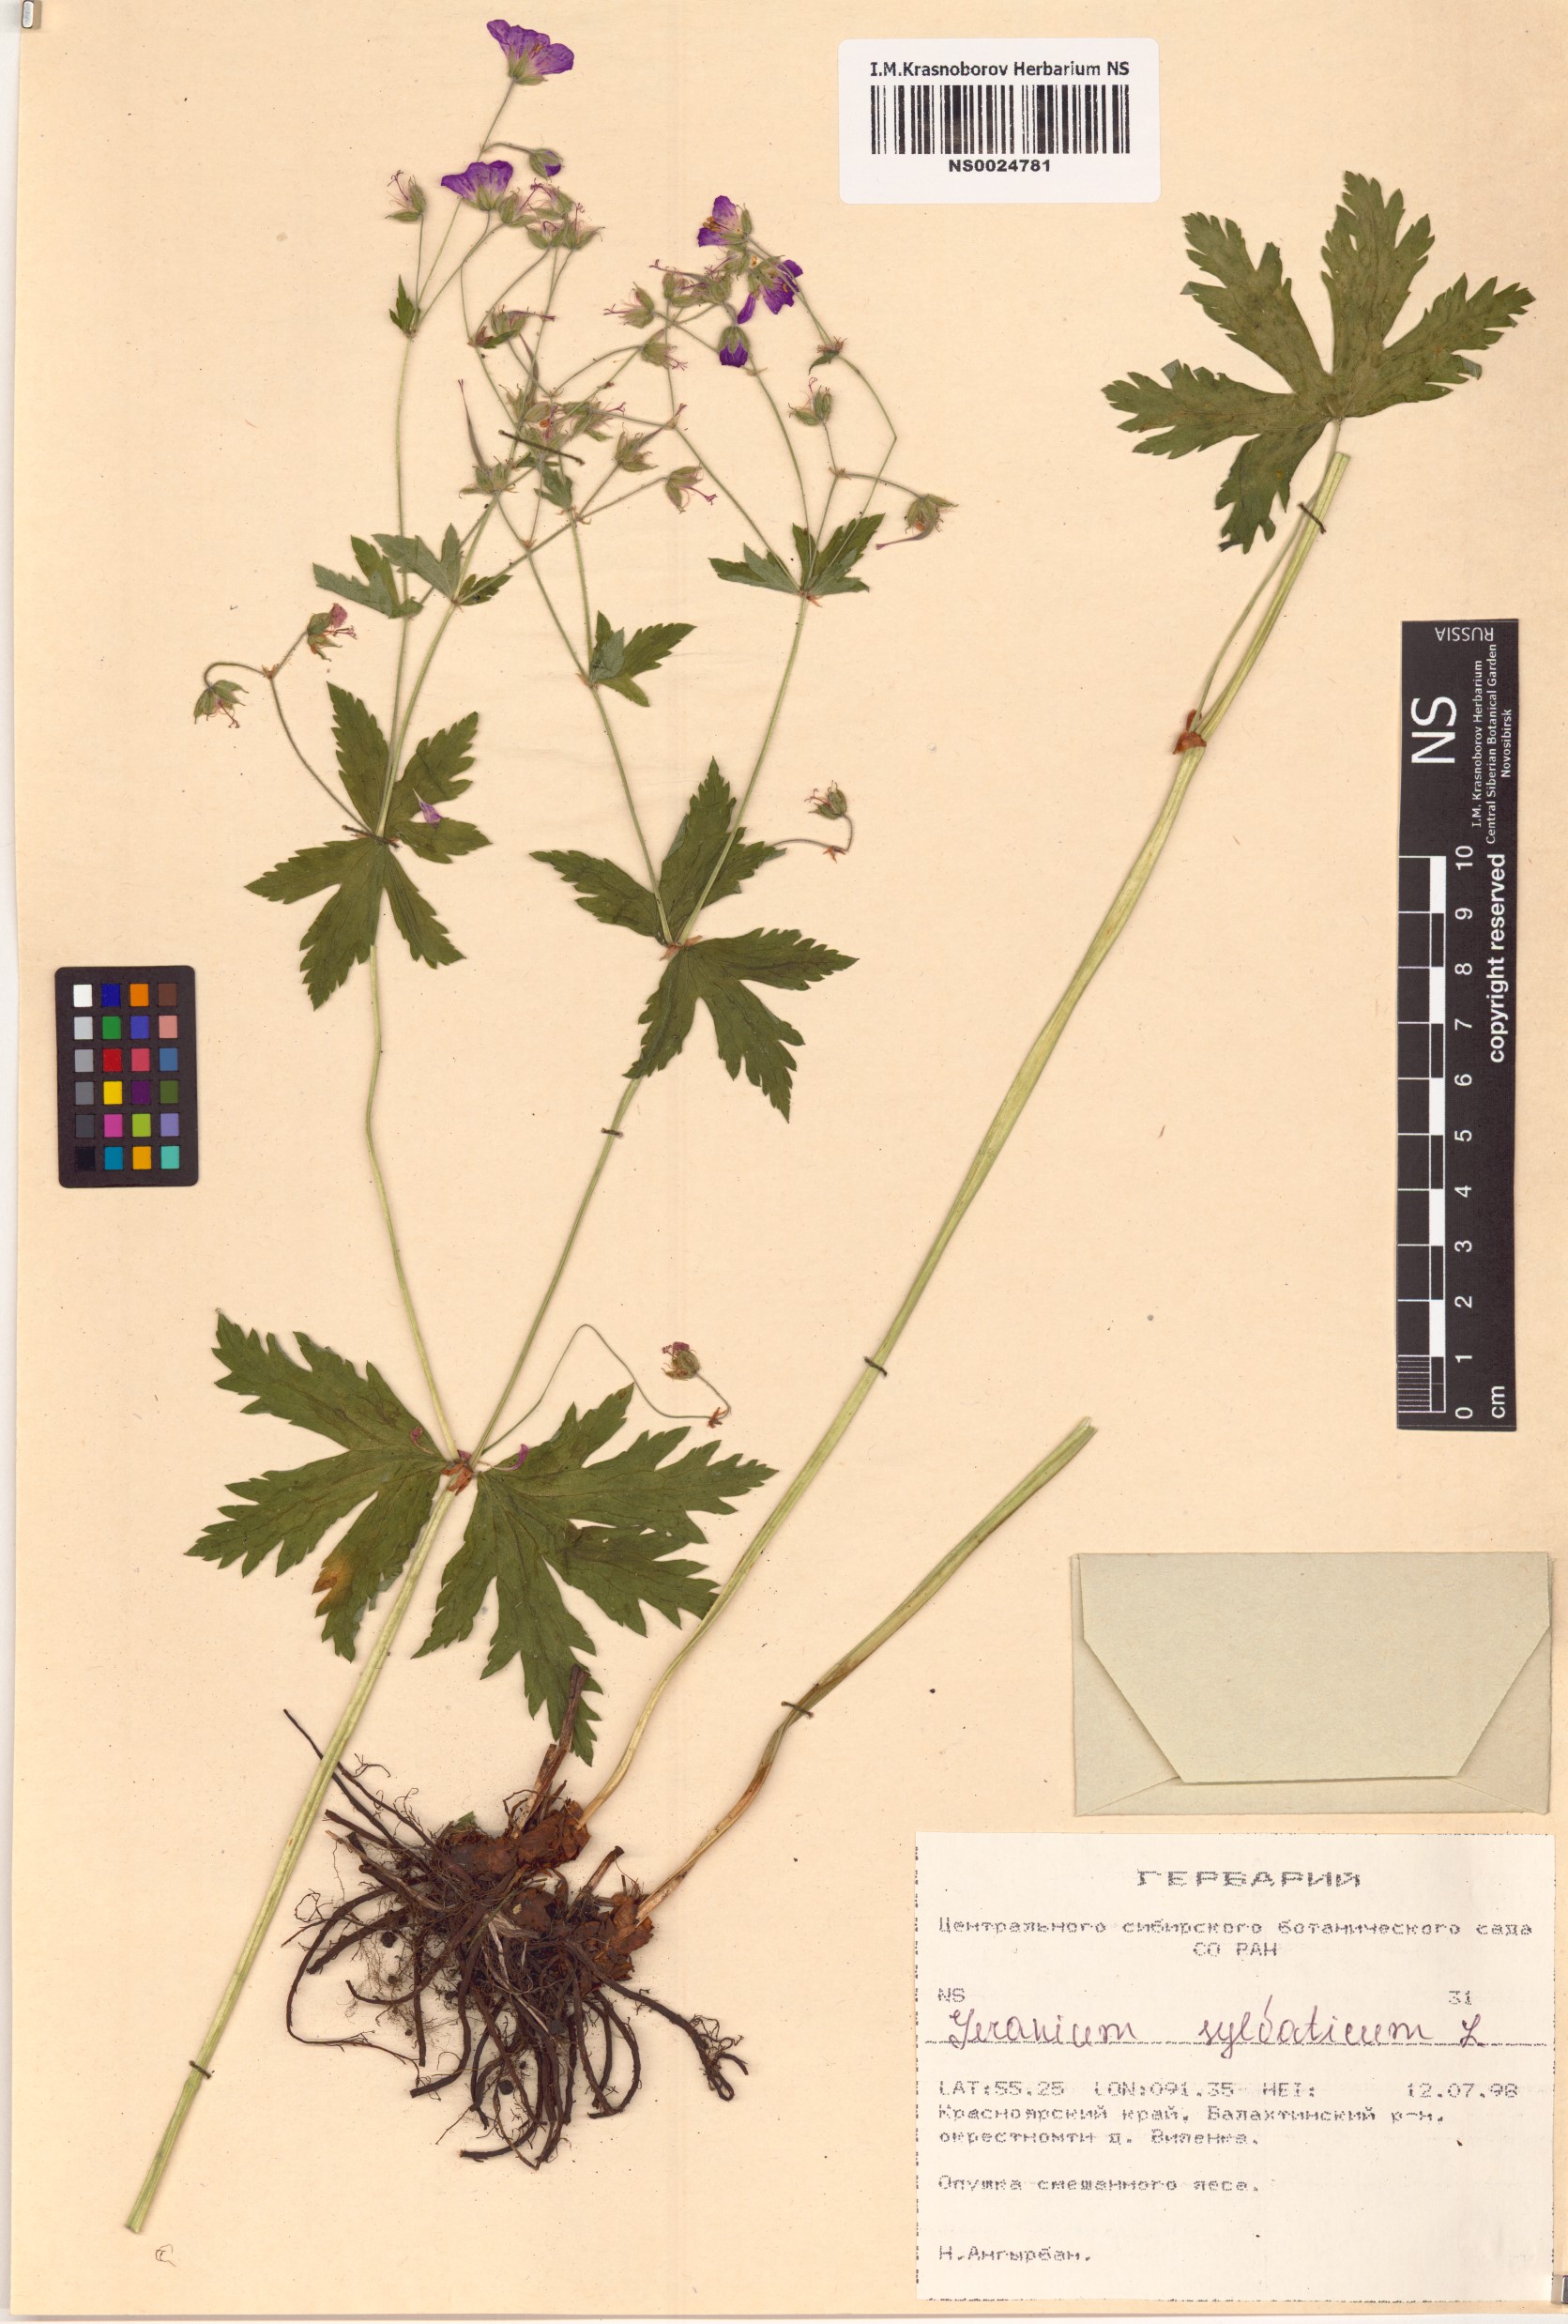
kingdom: Plantae
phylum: Tracheophyta
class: Magnoliopsida
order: Geraniales
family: Geraniaceae
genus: Geranium
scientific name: Geranium sylvaticum
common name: Wood crane's-bill
